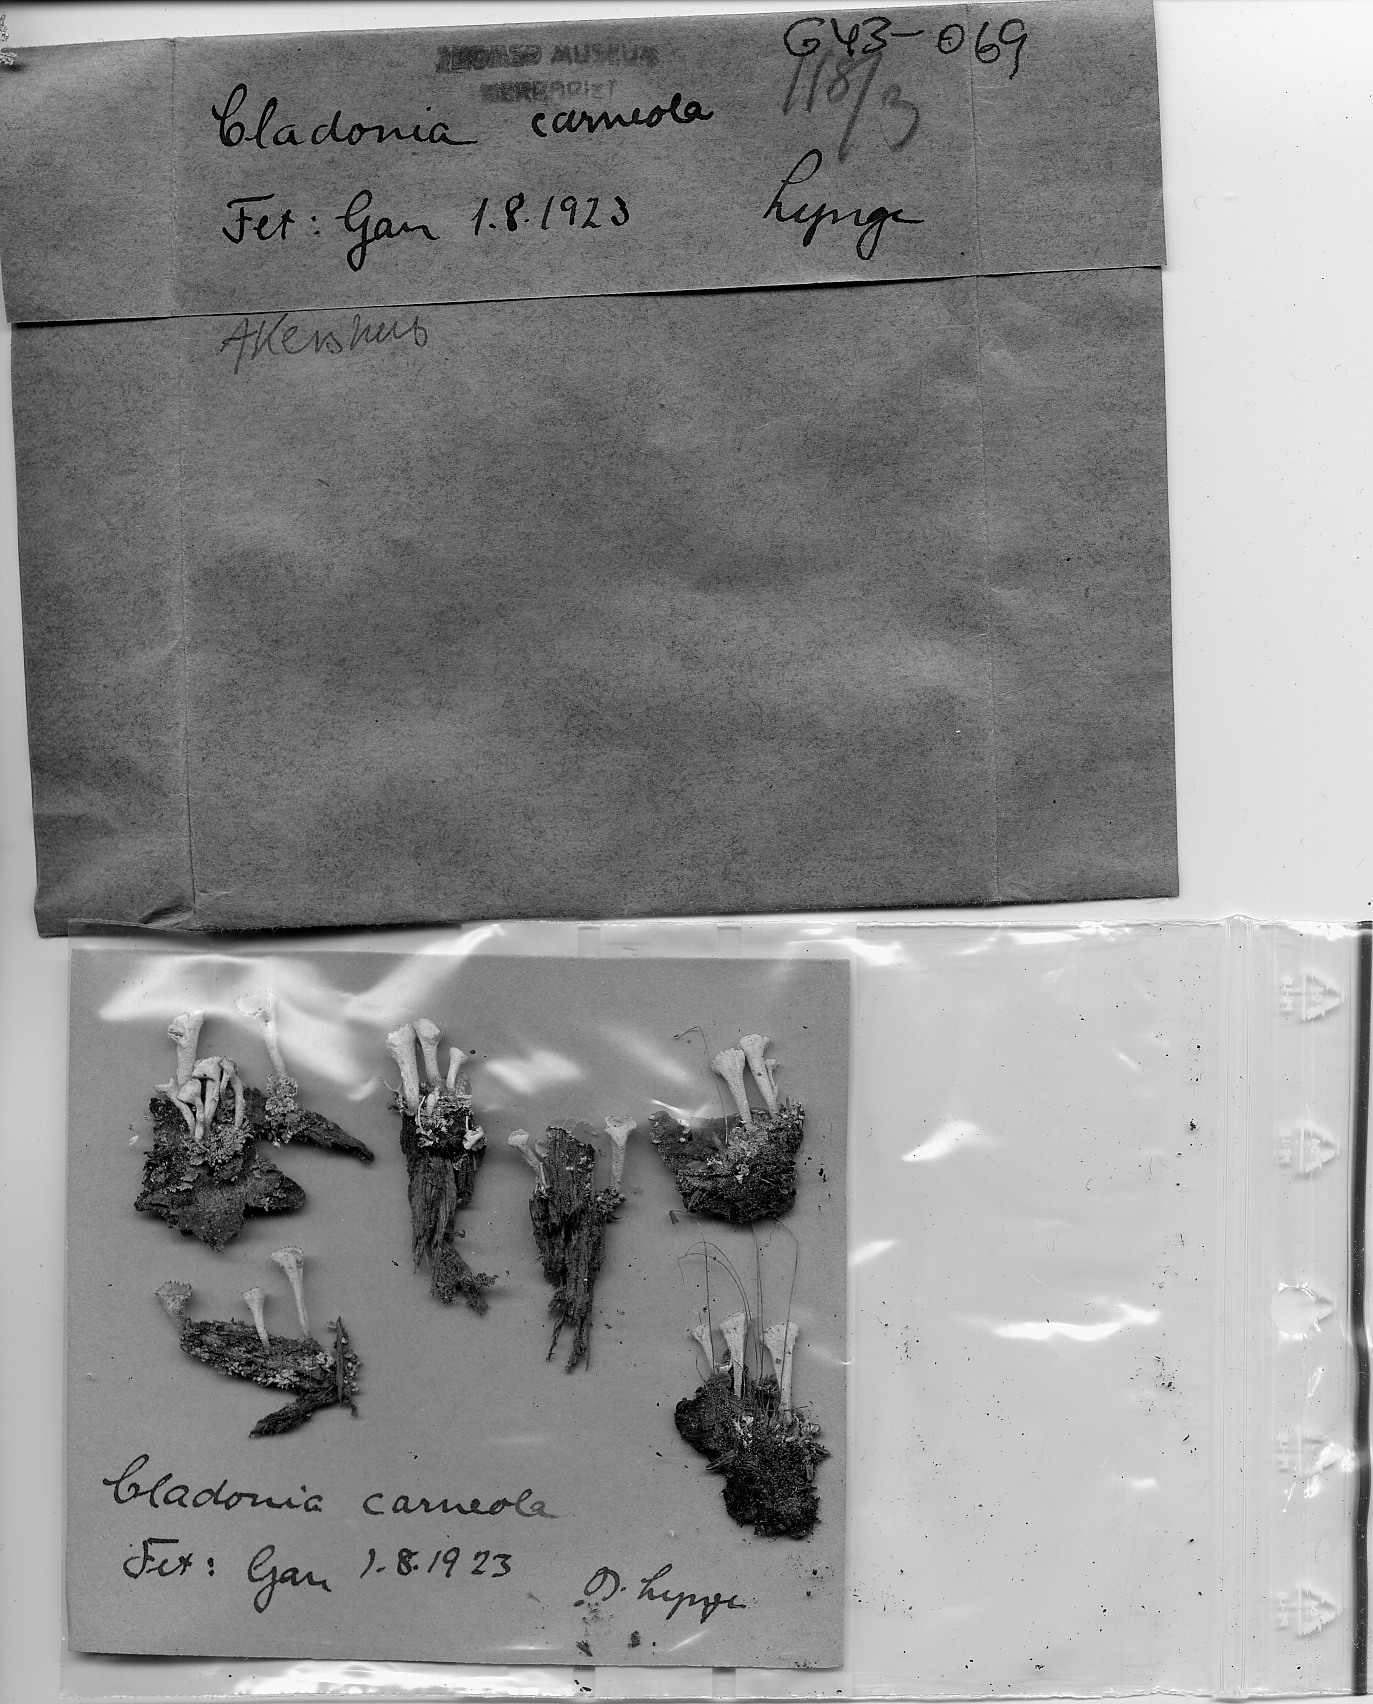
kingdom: Fungi
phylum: Ascomycota
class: Lecanoromycetes
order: Lecanorales
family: Cladoniaceae
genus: Cladonia
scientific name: Cladonia carneola
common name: Crowned pixie-cup
